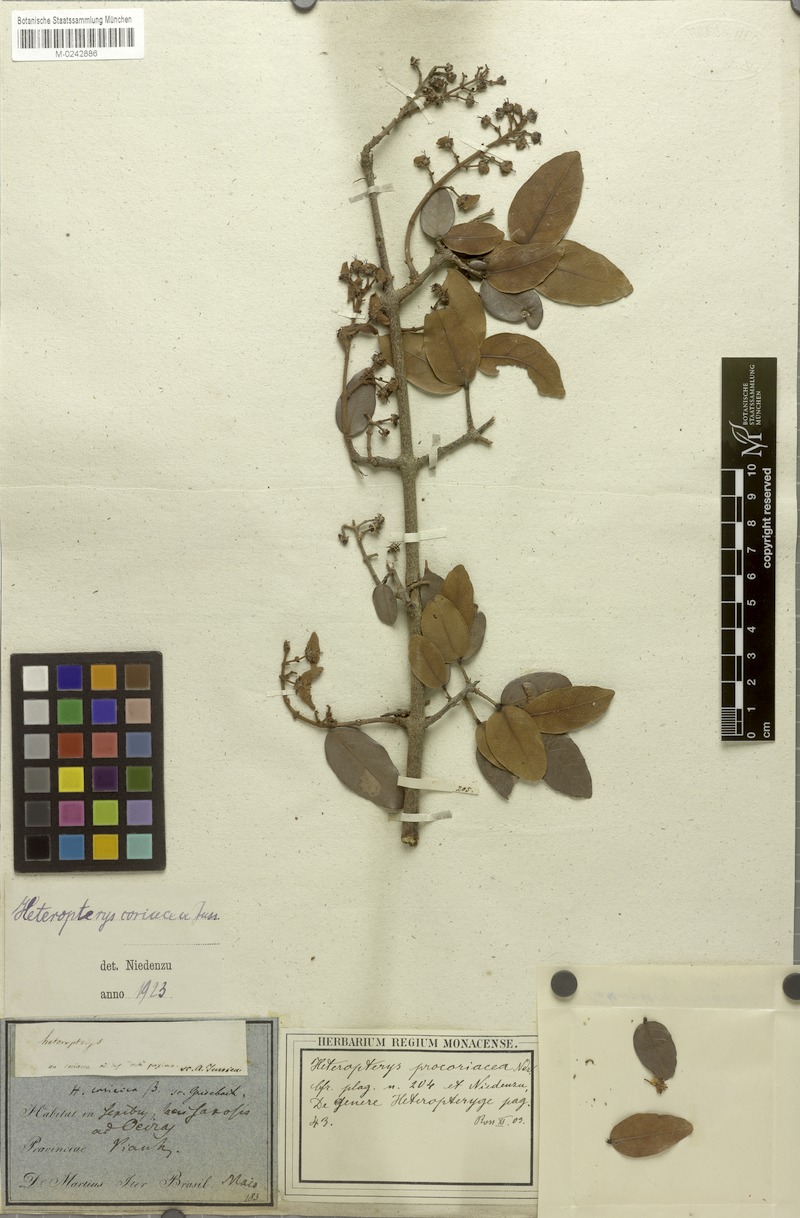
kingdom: Plantae
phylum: Tracheophyta
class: Magnoliopsida
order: Malpighiales
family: Malpighiaceae
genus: Heteropterys
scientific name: Heteropterys coriacea
